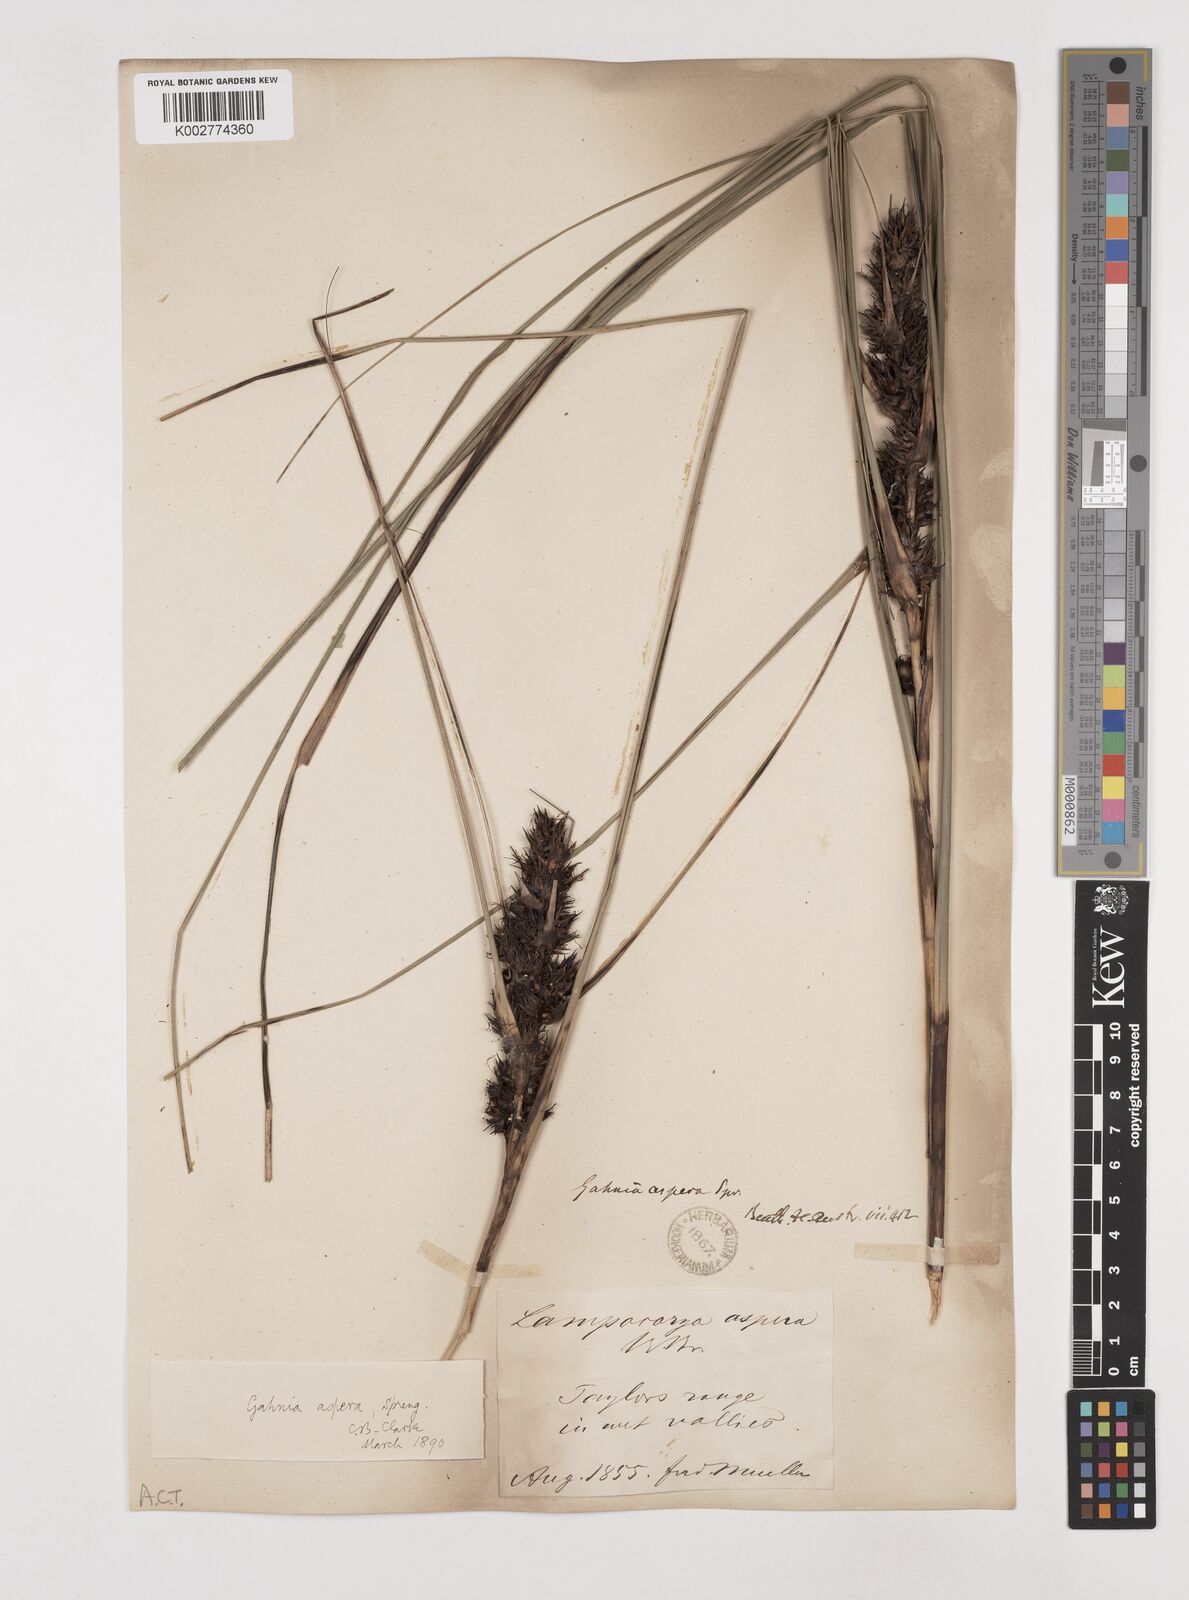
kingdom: Plantae
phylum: Tracheophyta
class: Liliopsida
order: Poales
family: Cyperaceae
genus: Gahnia
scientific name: Gahnia aspera
